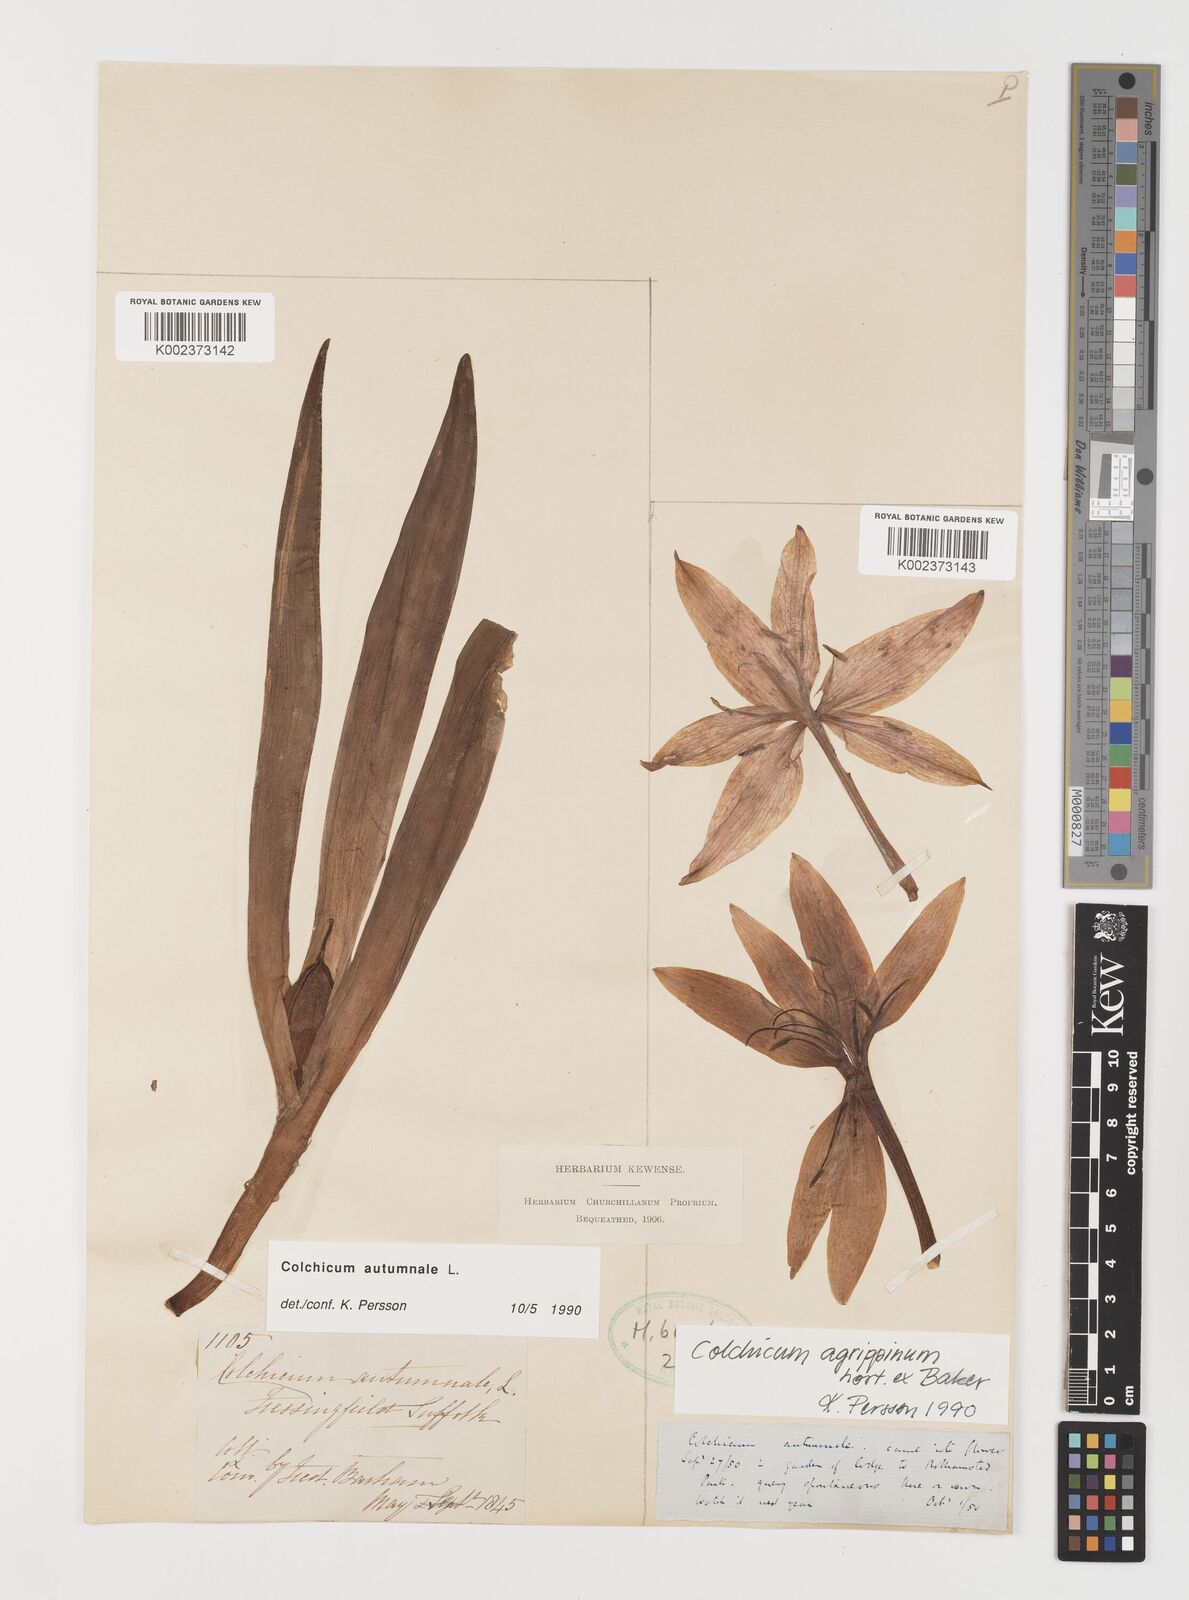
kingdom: Plantae
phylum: Tracheophyta
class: Liliopsida
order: Liliales
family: Colchicaceae
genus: Colchicum
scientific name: Colchicum autumnale
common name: Autumn crocus
